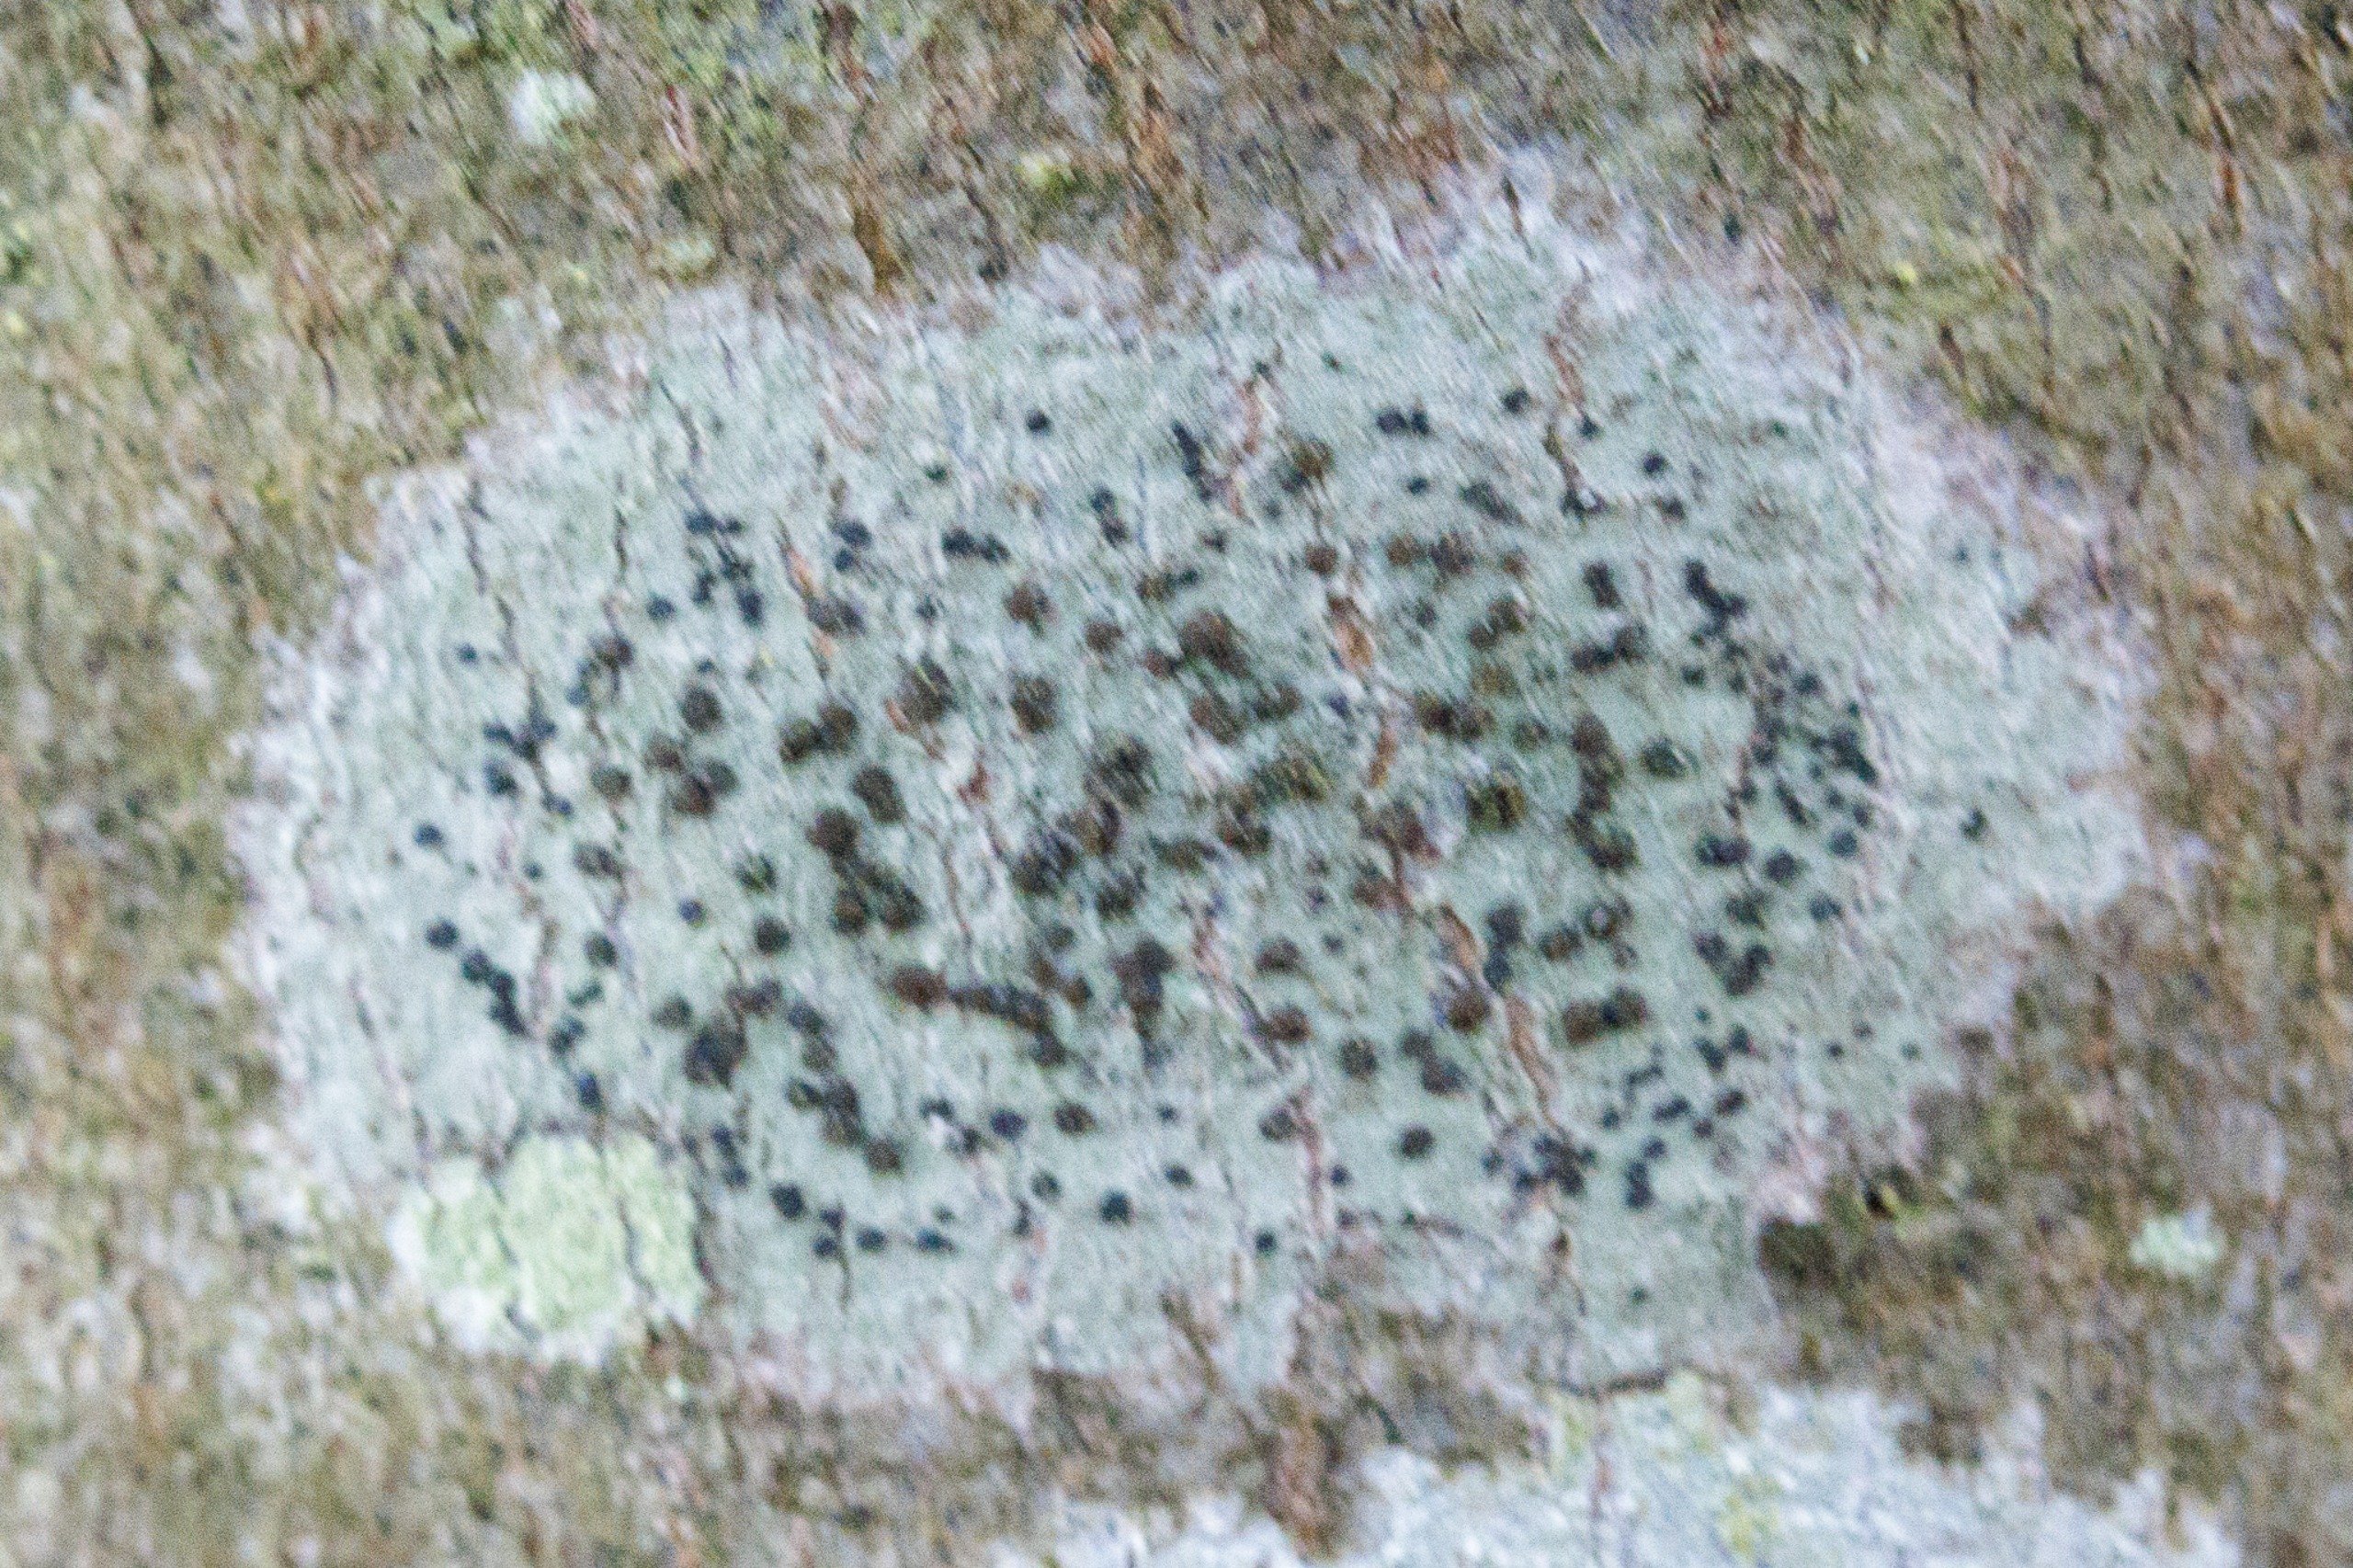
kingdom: Fungi
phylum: Ascomycota
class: Lecanoromycetes
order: Lecanorales
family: Lecanoraceae
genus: Lecidella
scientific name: Lecidella elaeochroma
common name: Grågrøn skivelav
